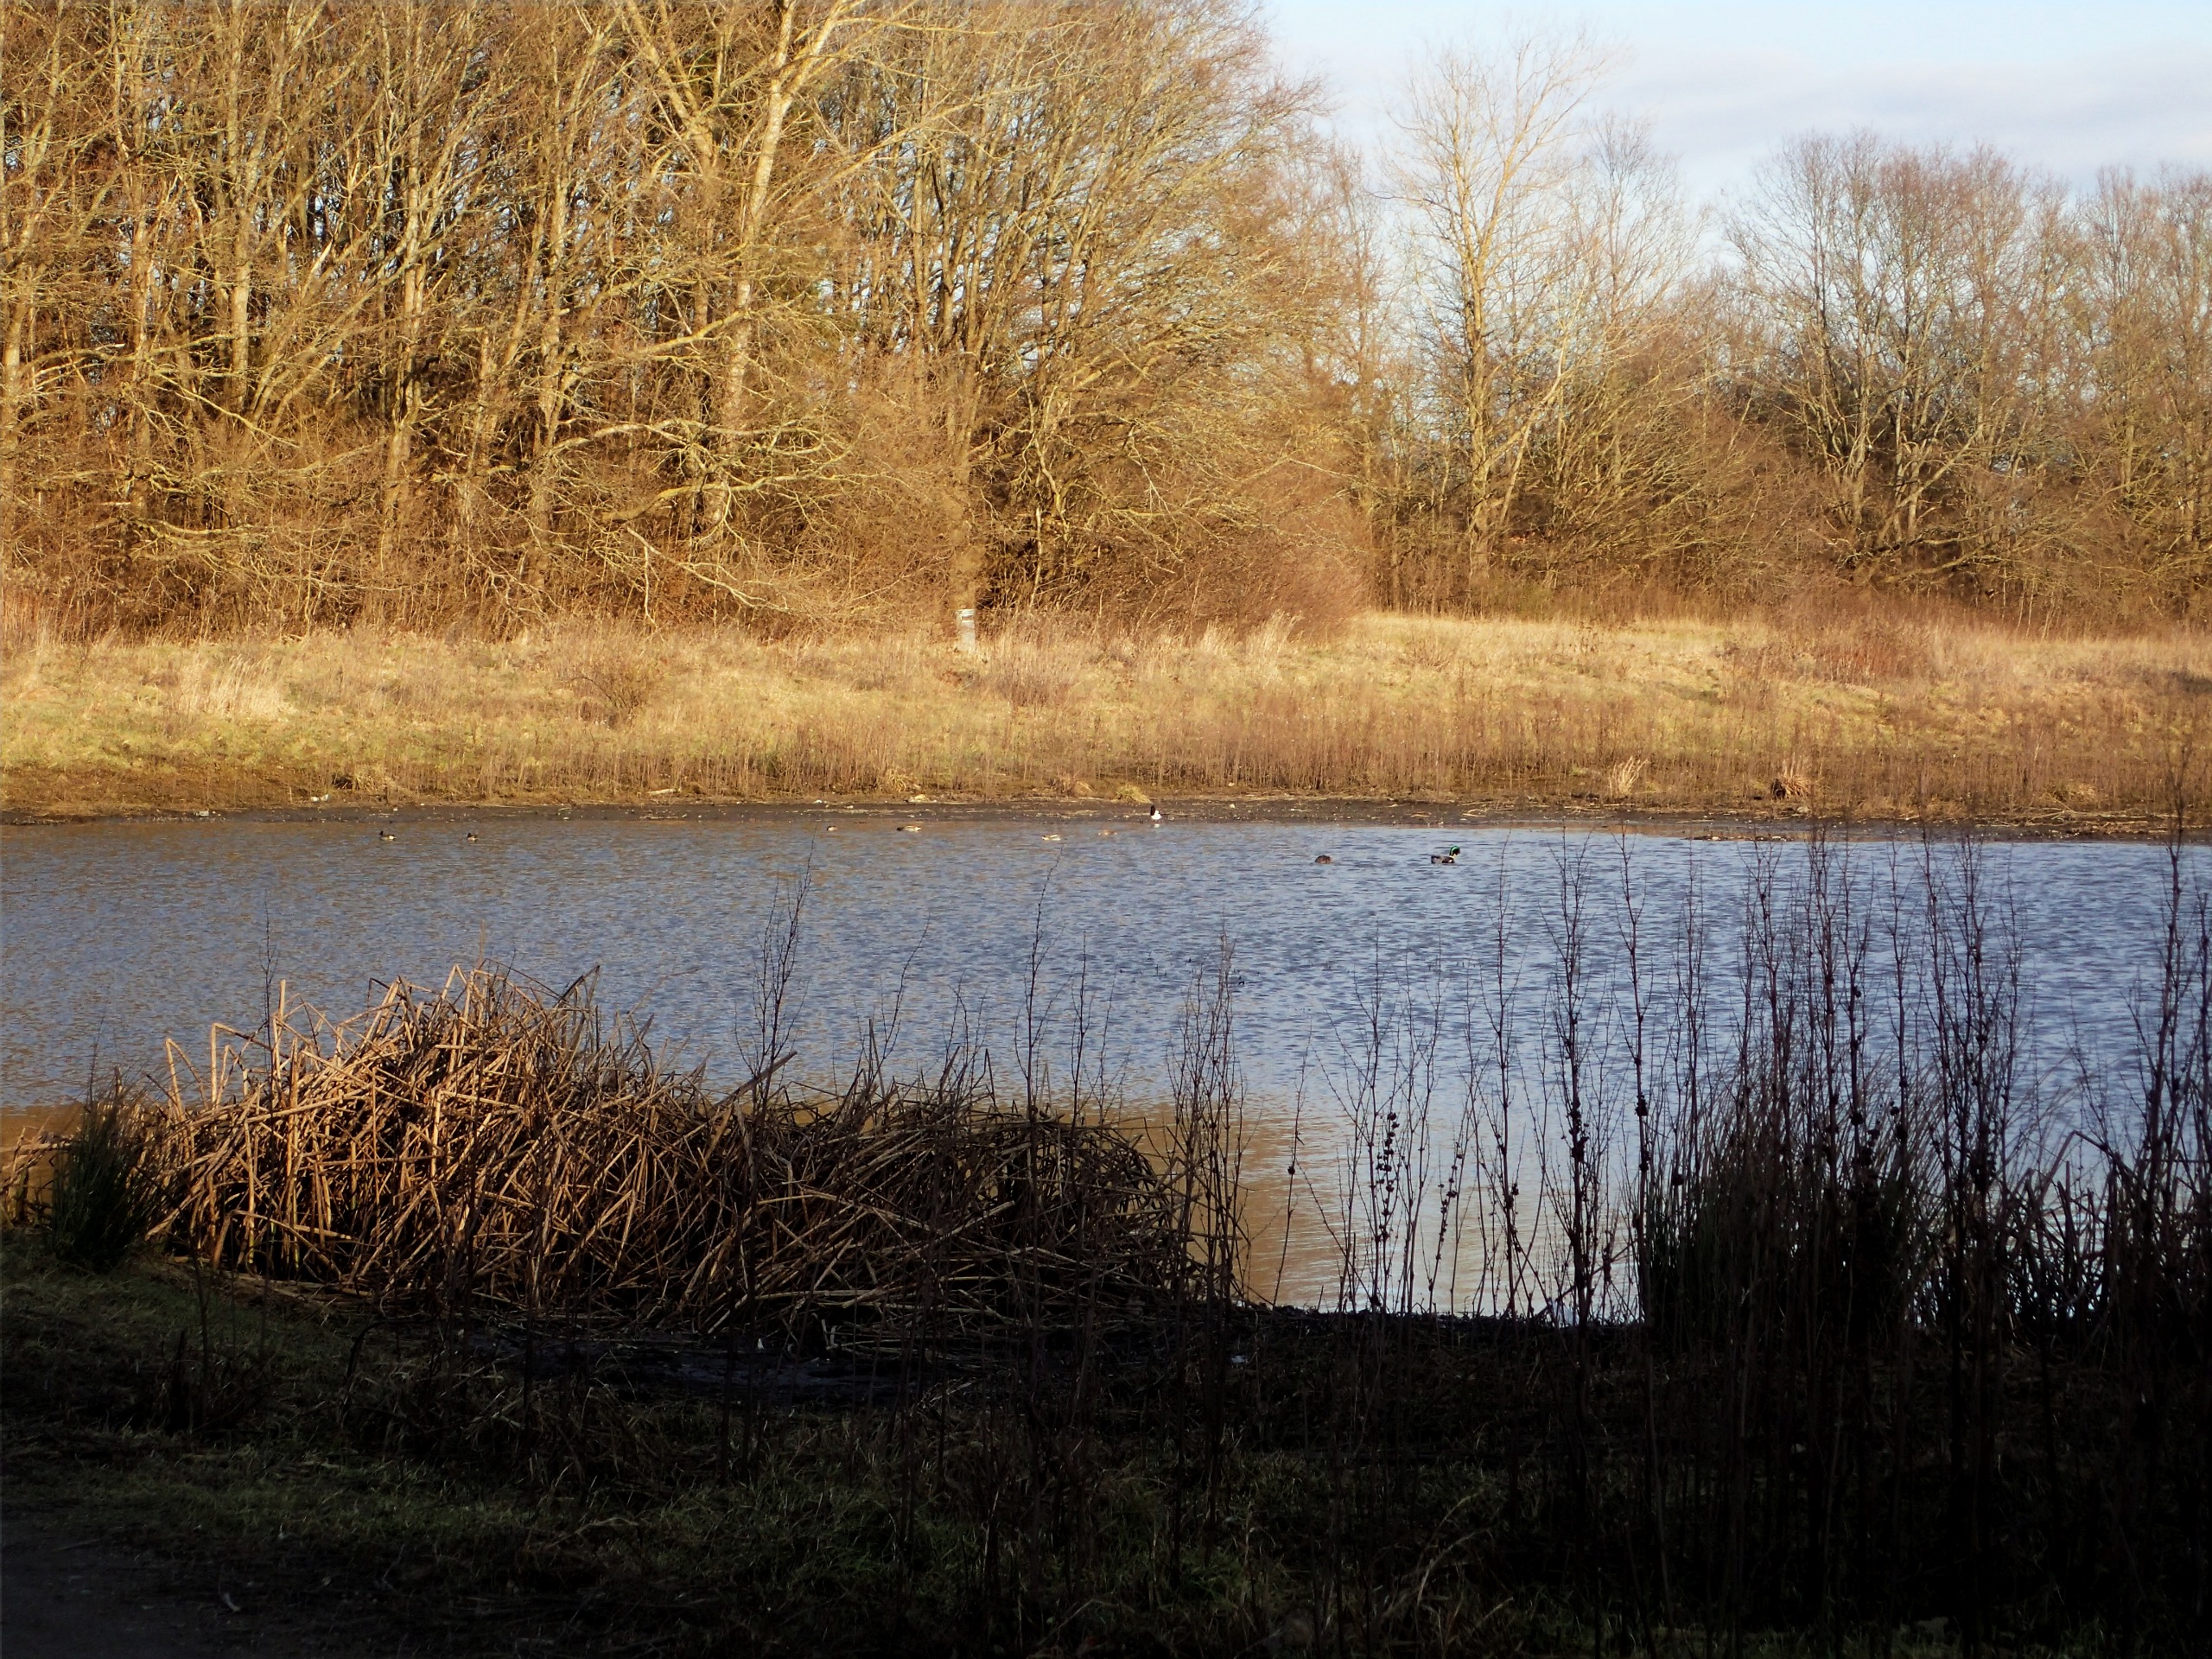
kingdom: Animalia
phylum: Chordata
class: Aves
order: Anseriformes
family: Anatidae
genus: Anas
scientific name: Anas crecca
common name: Krikand
